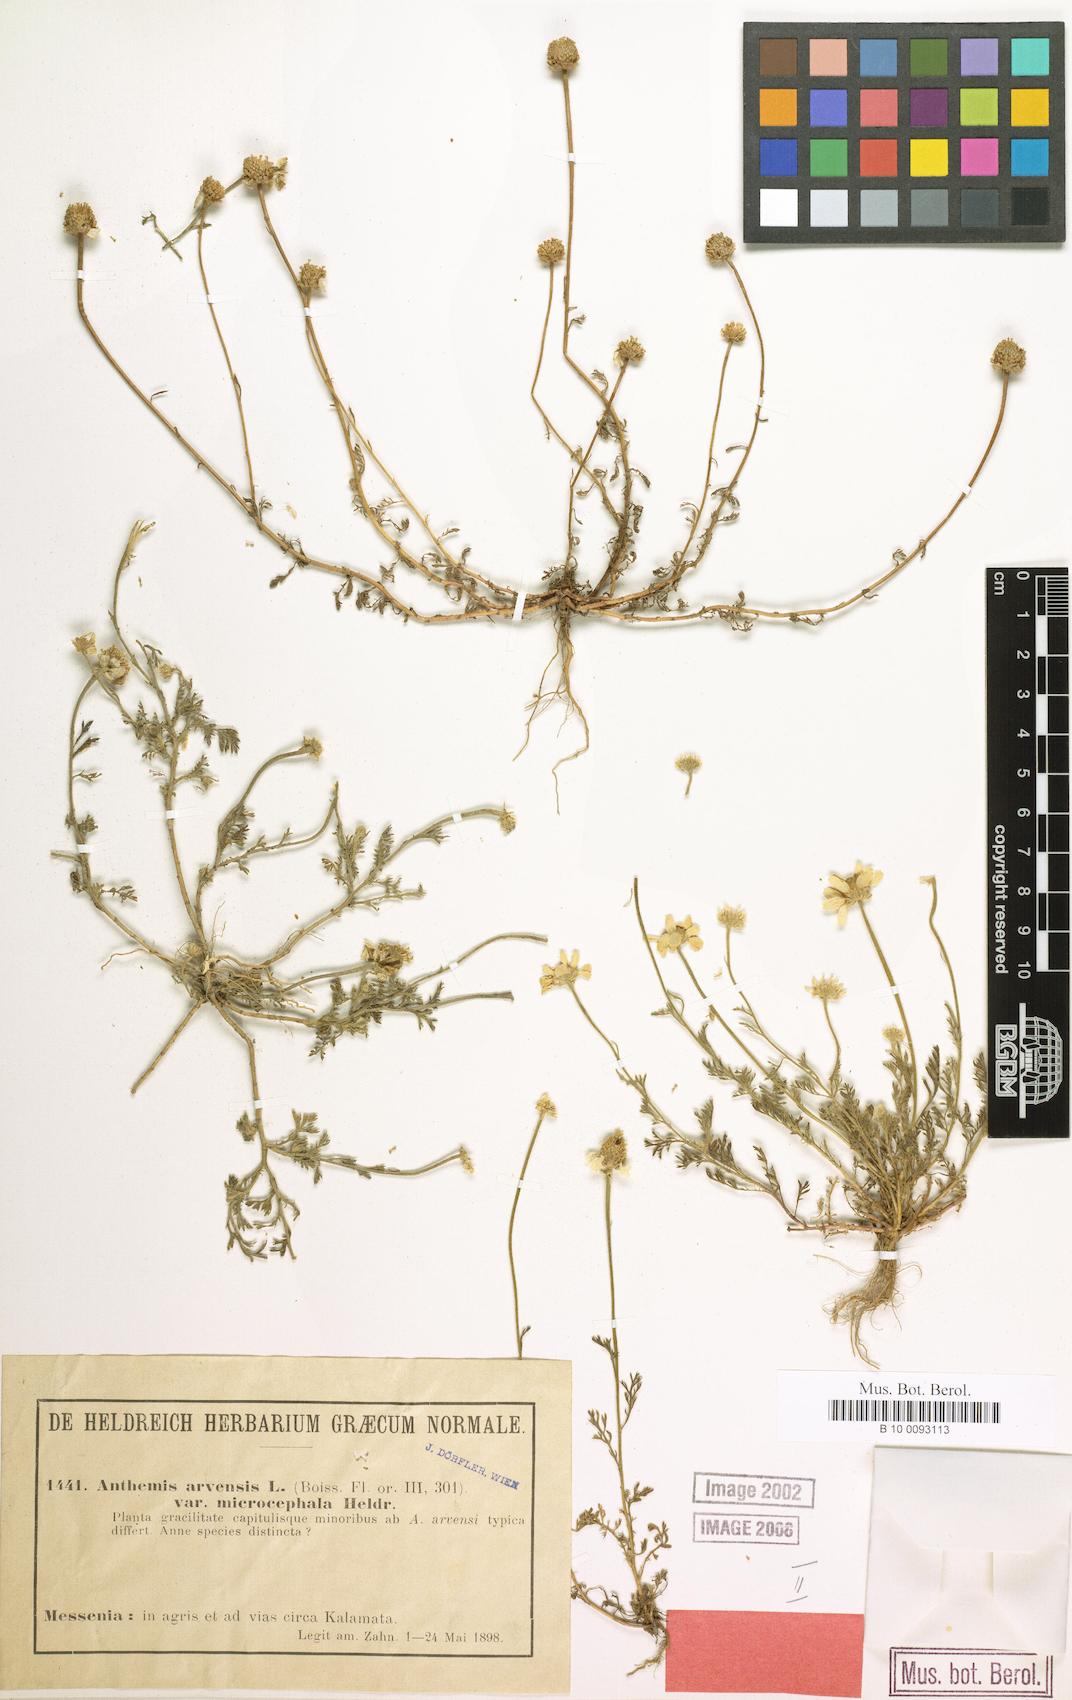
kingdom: Plantae
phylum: Tracheophyta
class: Magnoliopsida
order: Asterales
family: Asteraceae
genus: Anthemis
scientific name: Anthemis arvensis
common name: Corn chamomile
